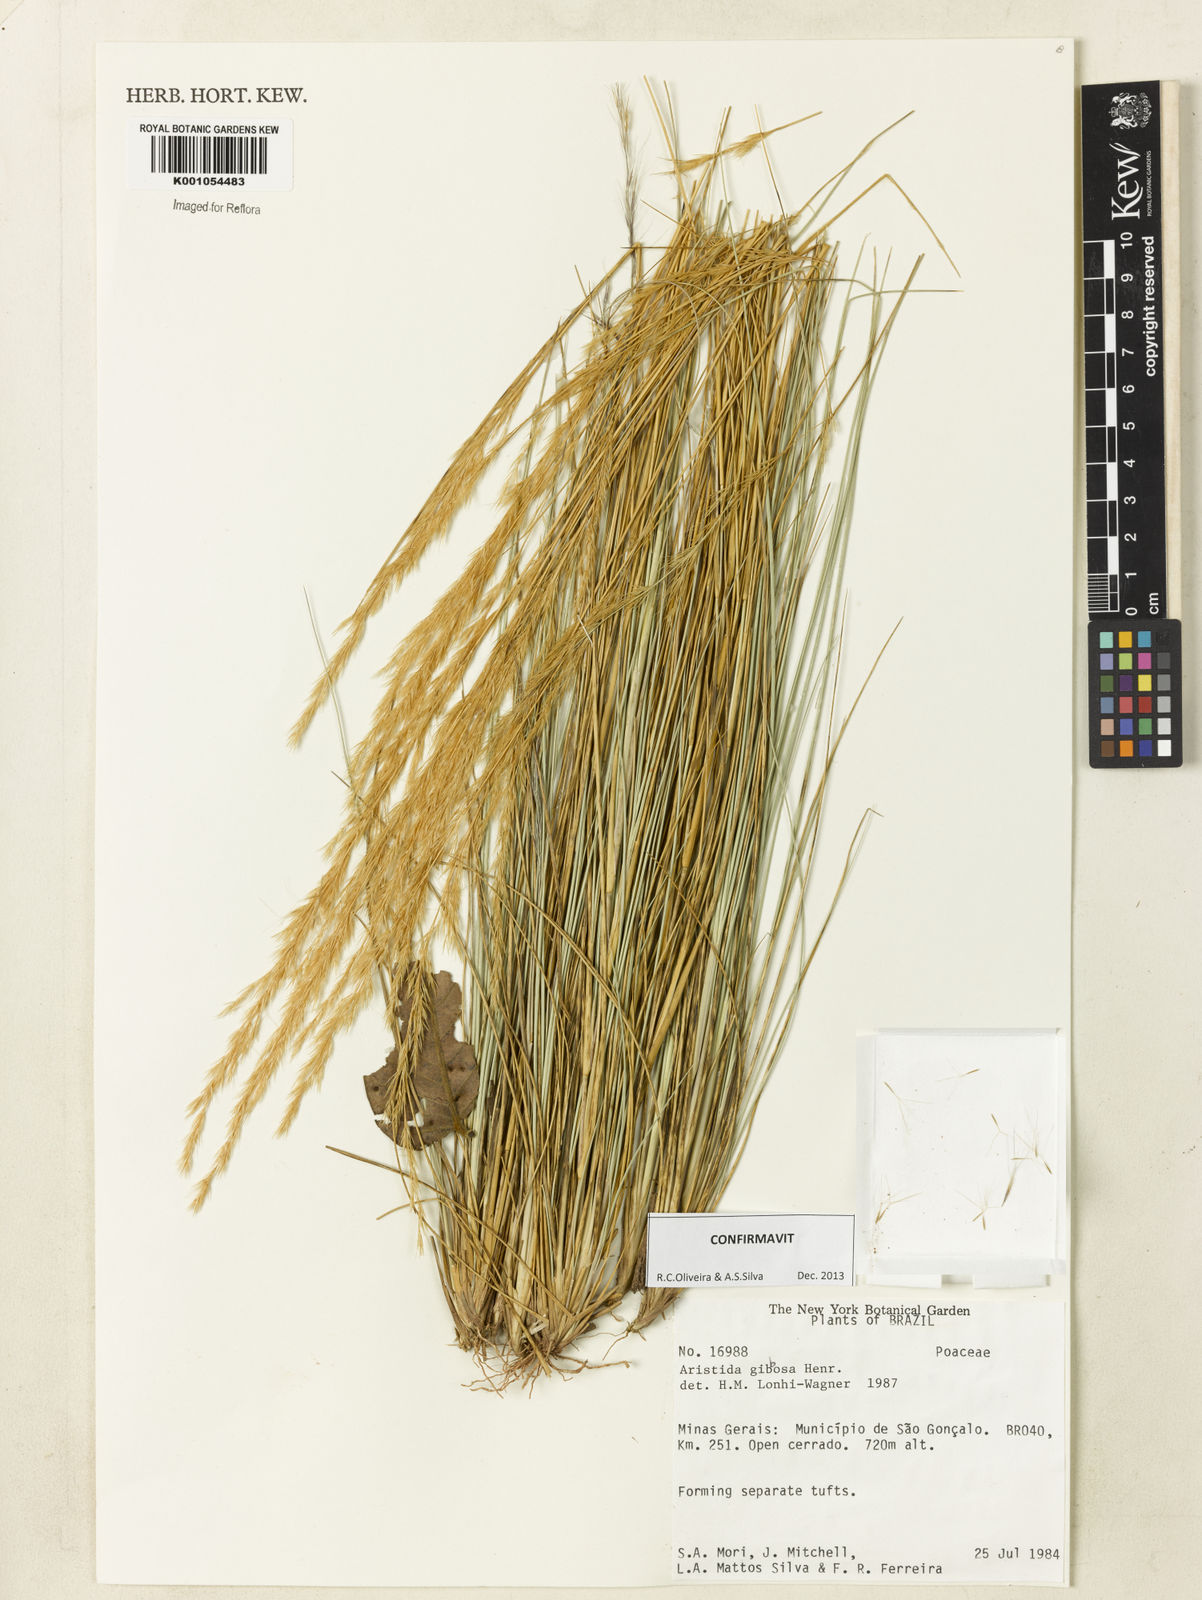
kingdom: Plantae
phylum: Tracheophyta
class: Liliopsida
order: Poales
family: Poaceae
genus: Aristida
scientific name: Aristida gibbosa
